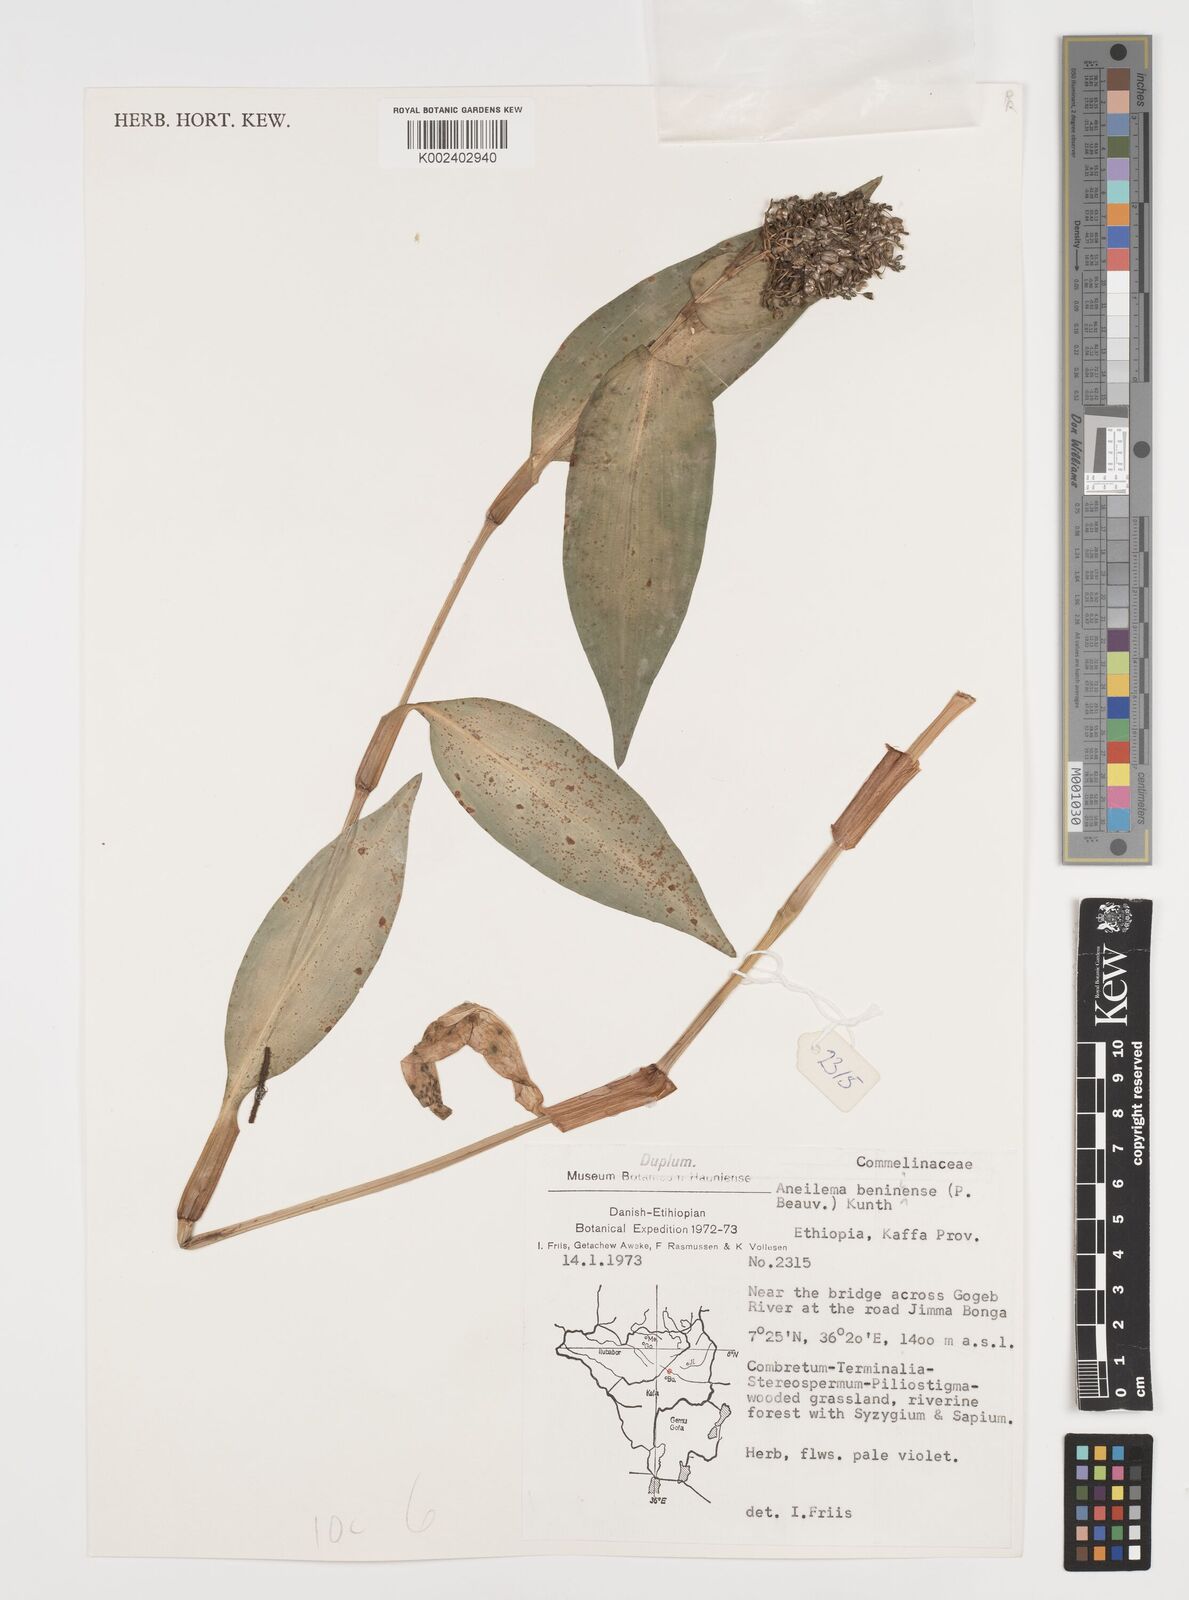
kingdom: Plantae
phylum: Tracheophyta
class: Liliopsida
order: Commelinales
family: Commelinaceae
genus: Aneilema
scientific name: Aneilema beniniense
